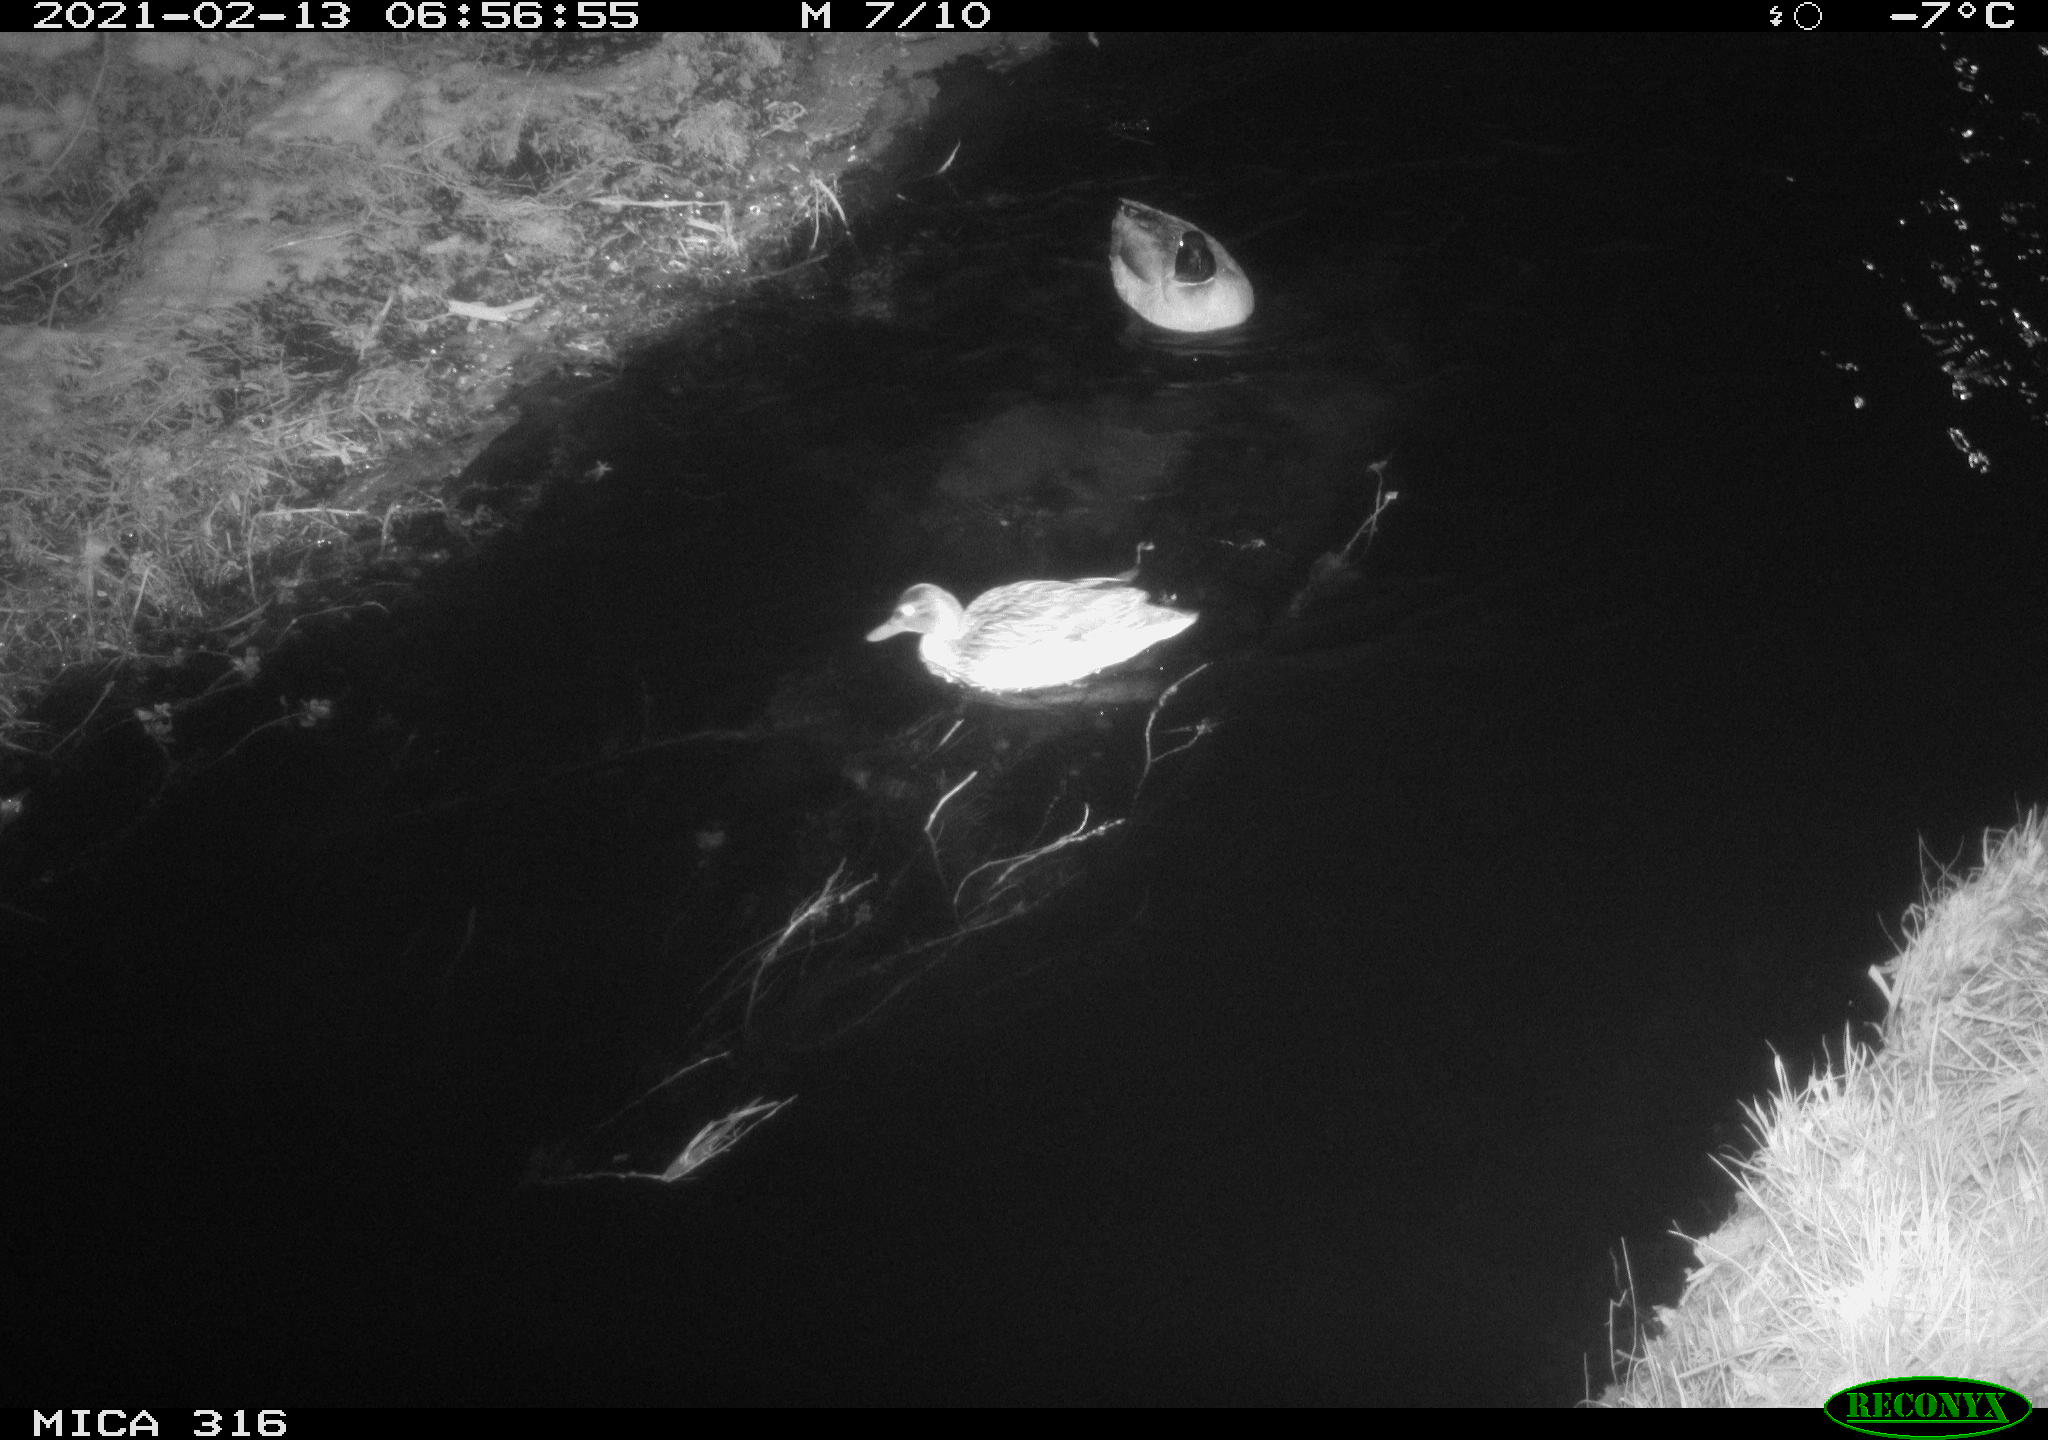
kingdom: Animalia
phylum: Chordata
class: Aves
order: Anseriformes
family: Anatidae
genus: Anas
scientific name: Anas platyrhynchos
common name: Mallard
